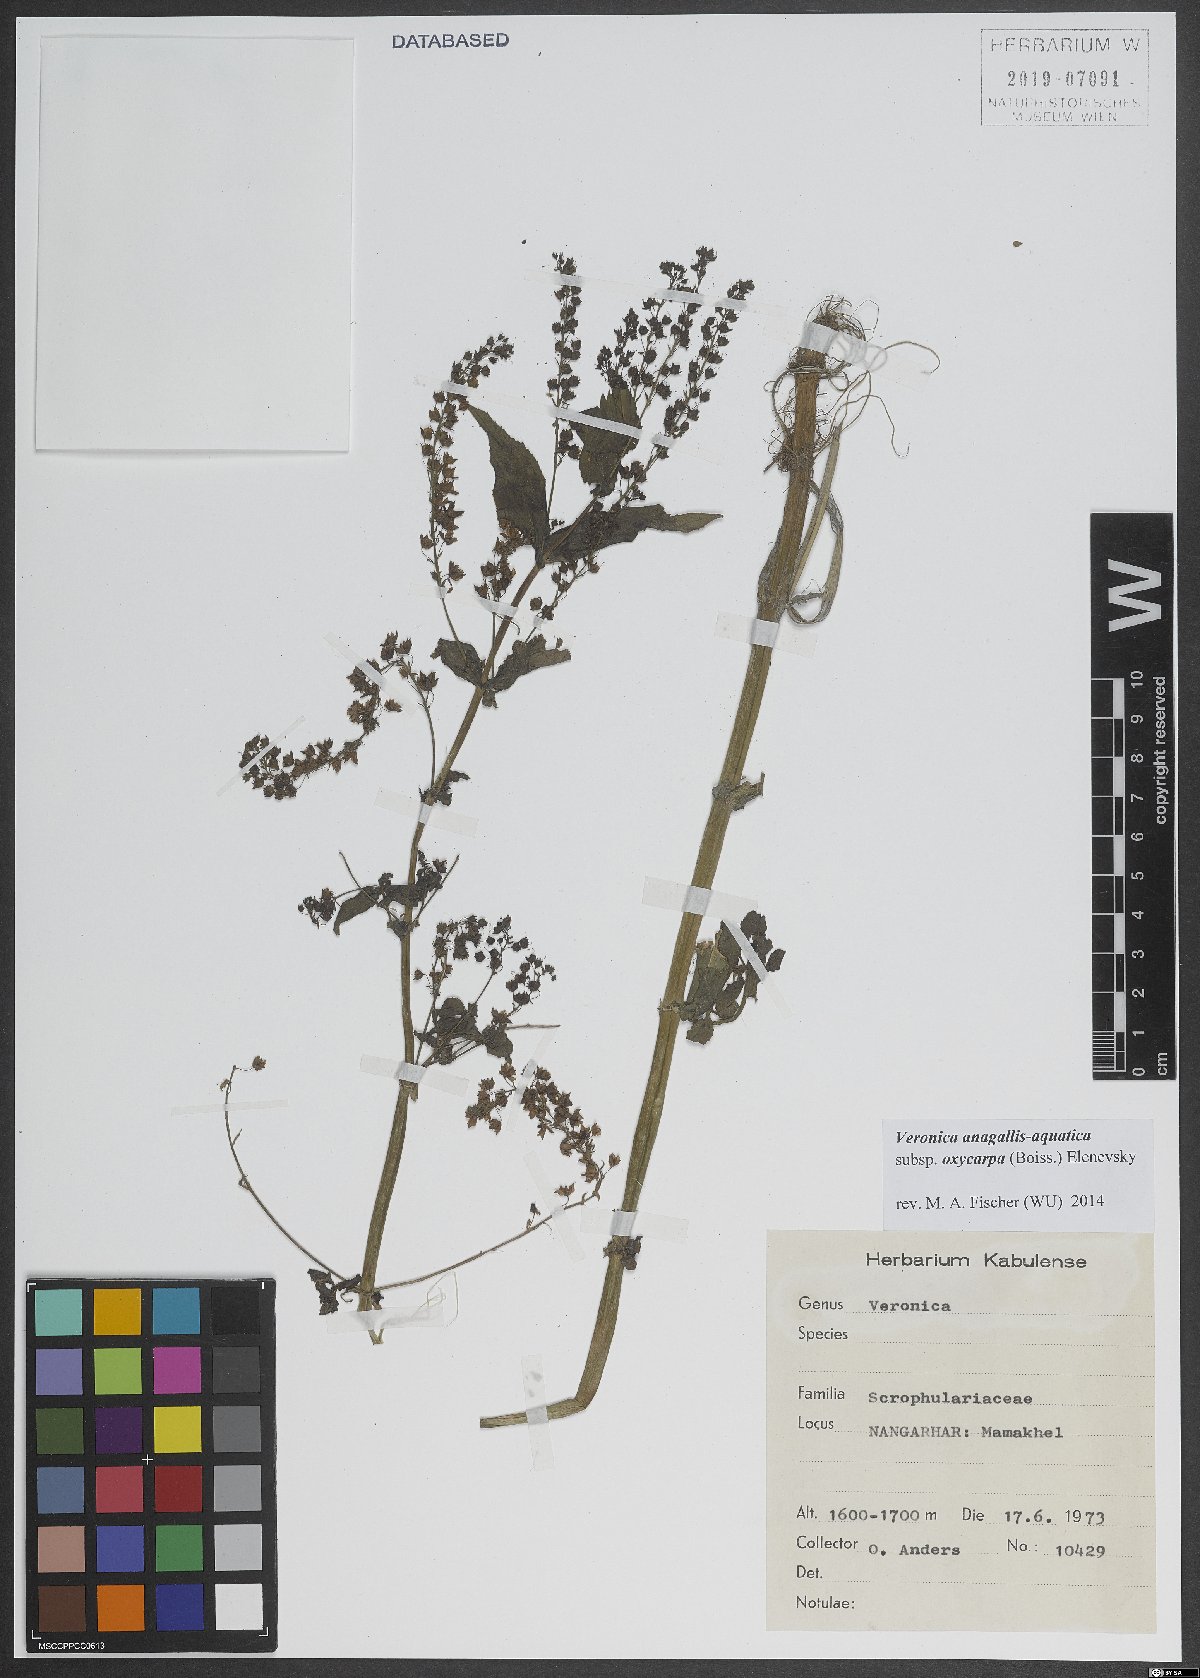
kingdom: Plantae
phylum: Tracheophyta
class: Magnoliopsida
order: Lamiales
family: Plantaginaceae
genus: Veronica
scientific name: Veronica oxycarpa
